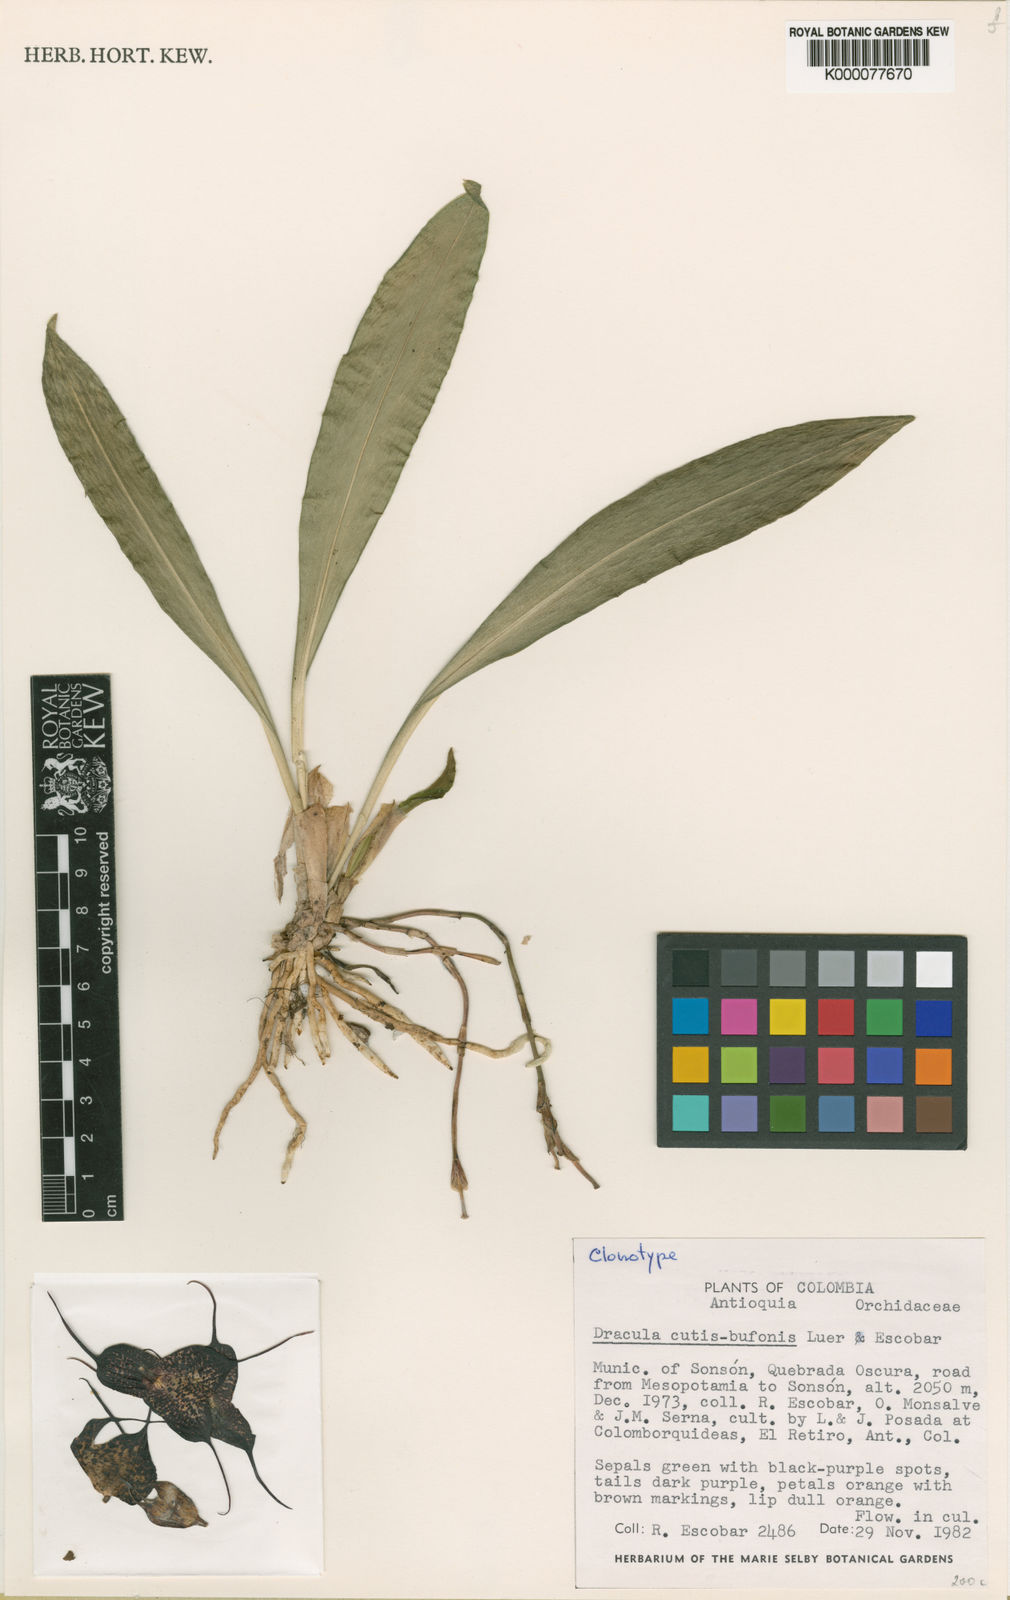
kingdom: Plantae
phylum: Tracheophyta
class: Liliopsida
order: Asparagales
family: Orchidaceae
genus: Dracula
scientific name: Dracula cutis-bufonis
